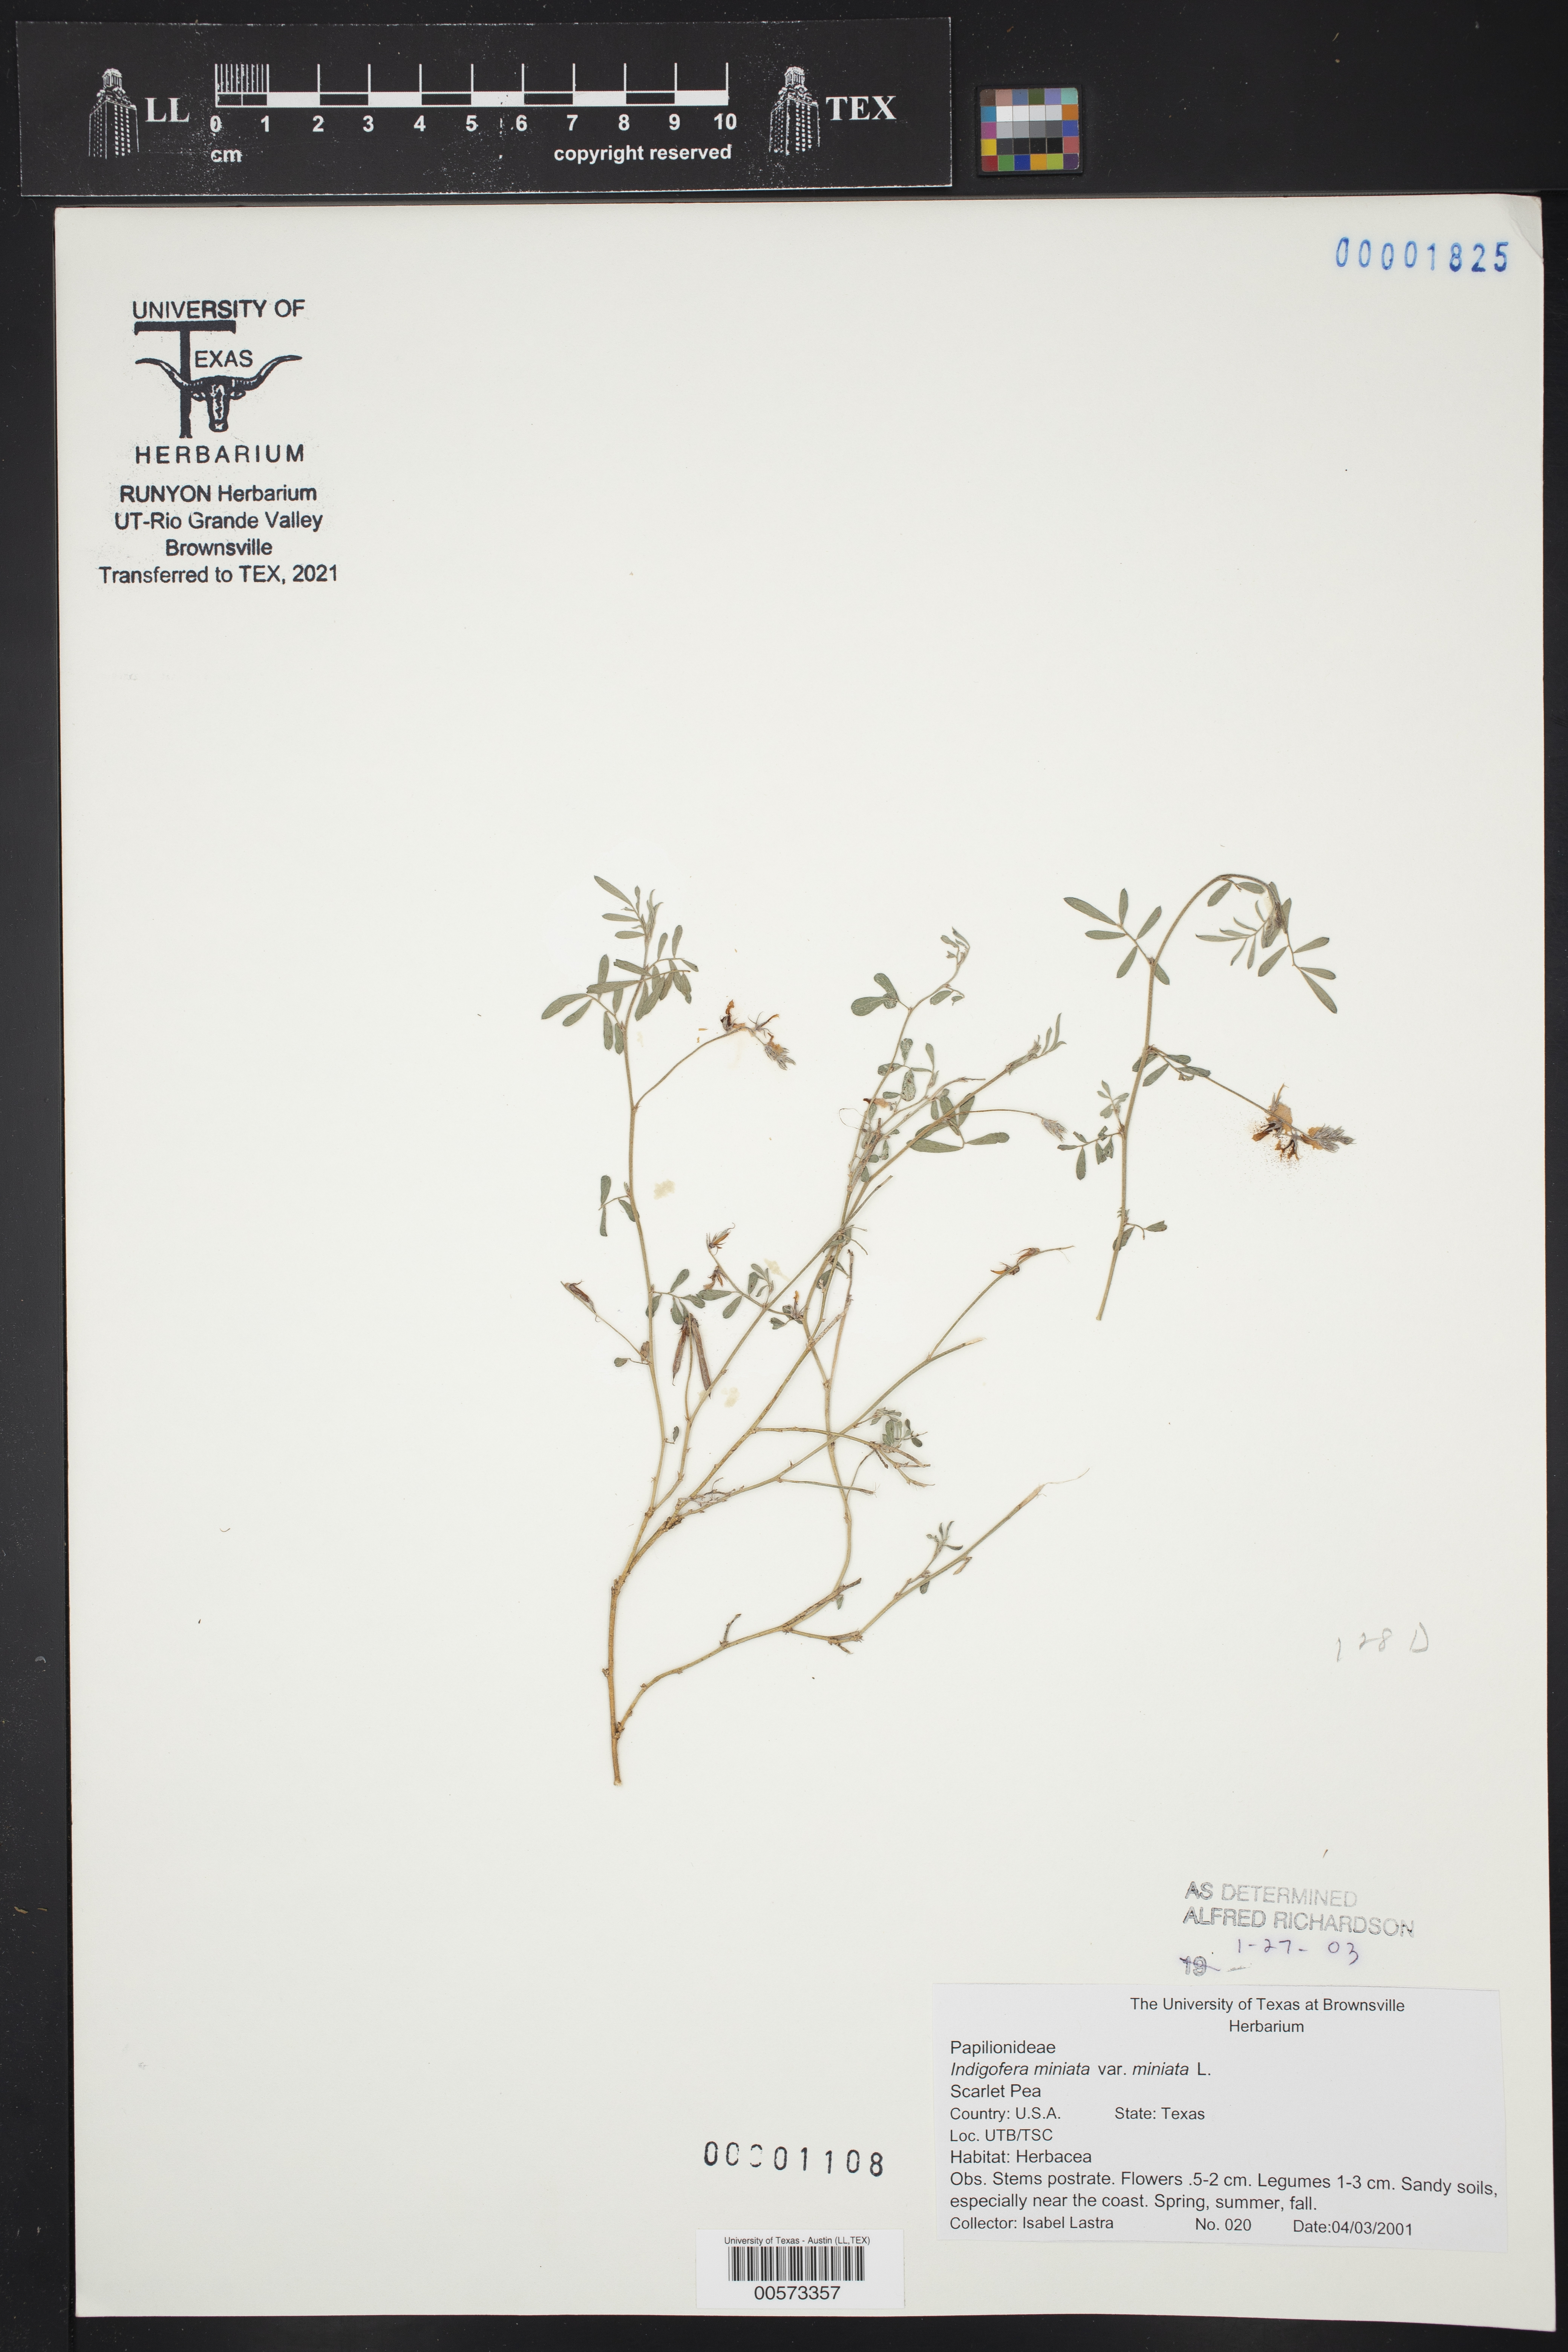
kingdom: Plantae
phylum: Tracheophyta
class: Magnoliopsida
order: Fabales
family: Fabaceae
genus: Indigofera
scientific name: Indigofera miniata
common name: Coast indigo
